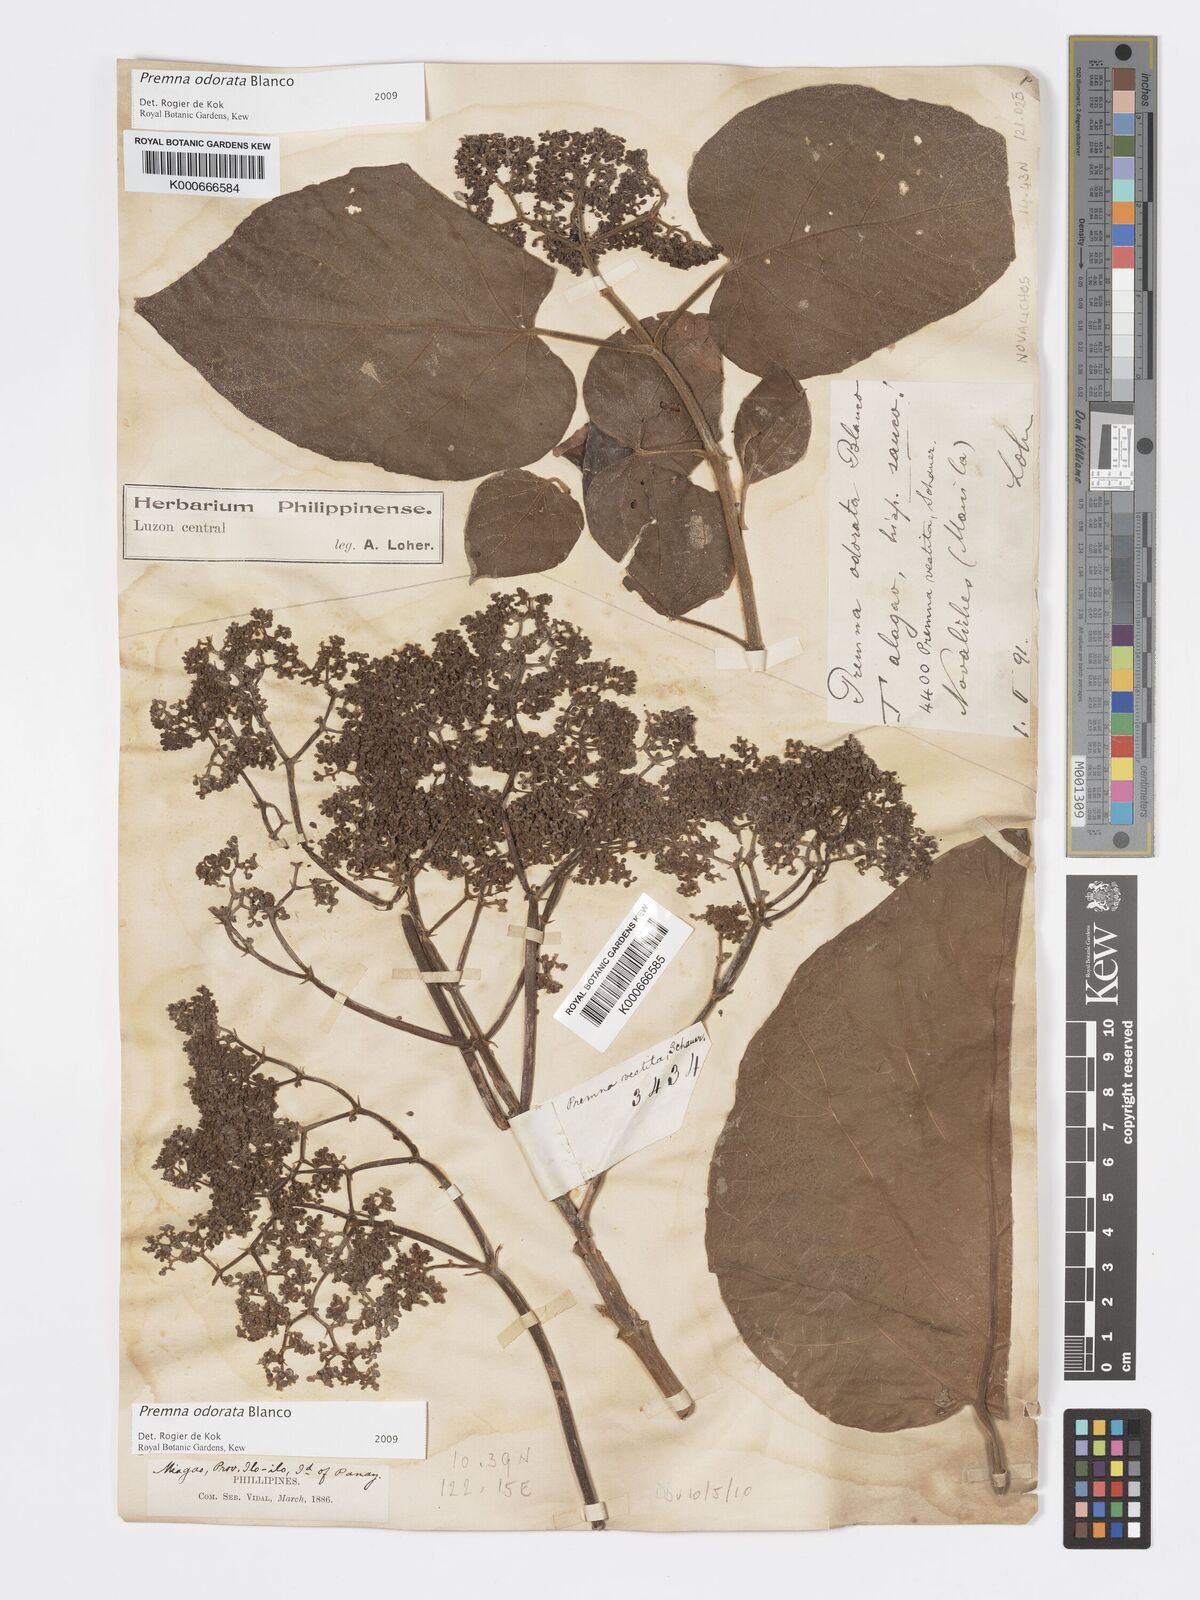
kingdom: Plantae
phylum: Tracheophyta
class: Magnoliopsida
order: Lamiales
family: Lamiaceae
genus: Premna
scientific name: Premna odorata
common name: Fragrant premna
